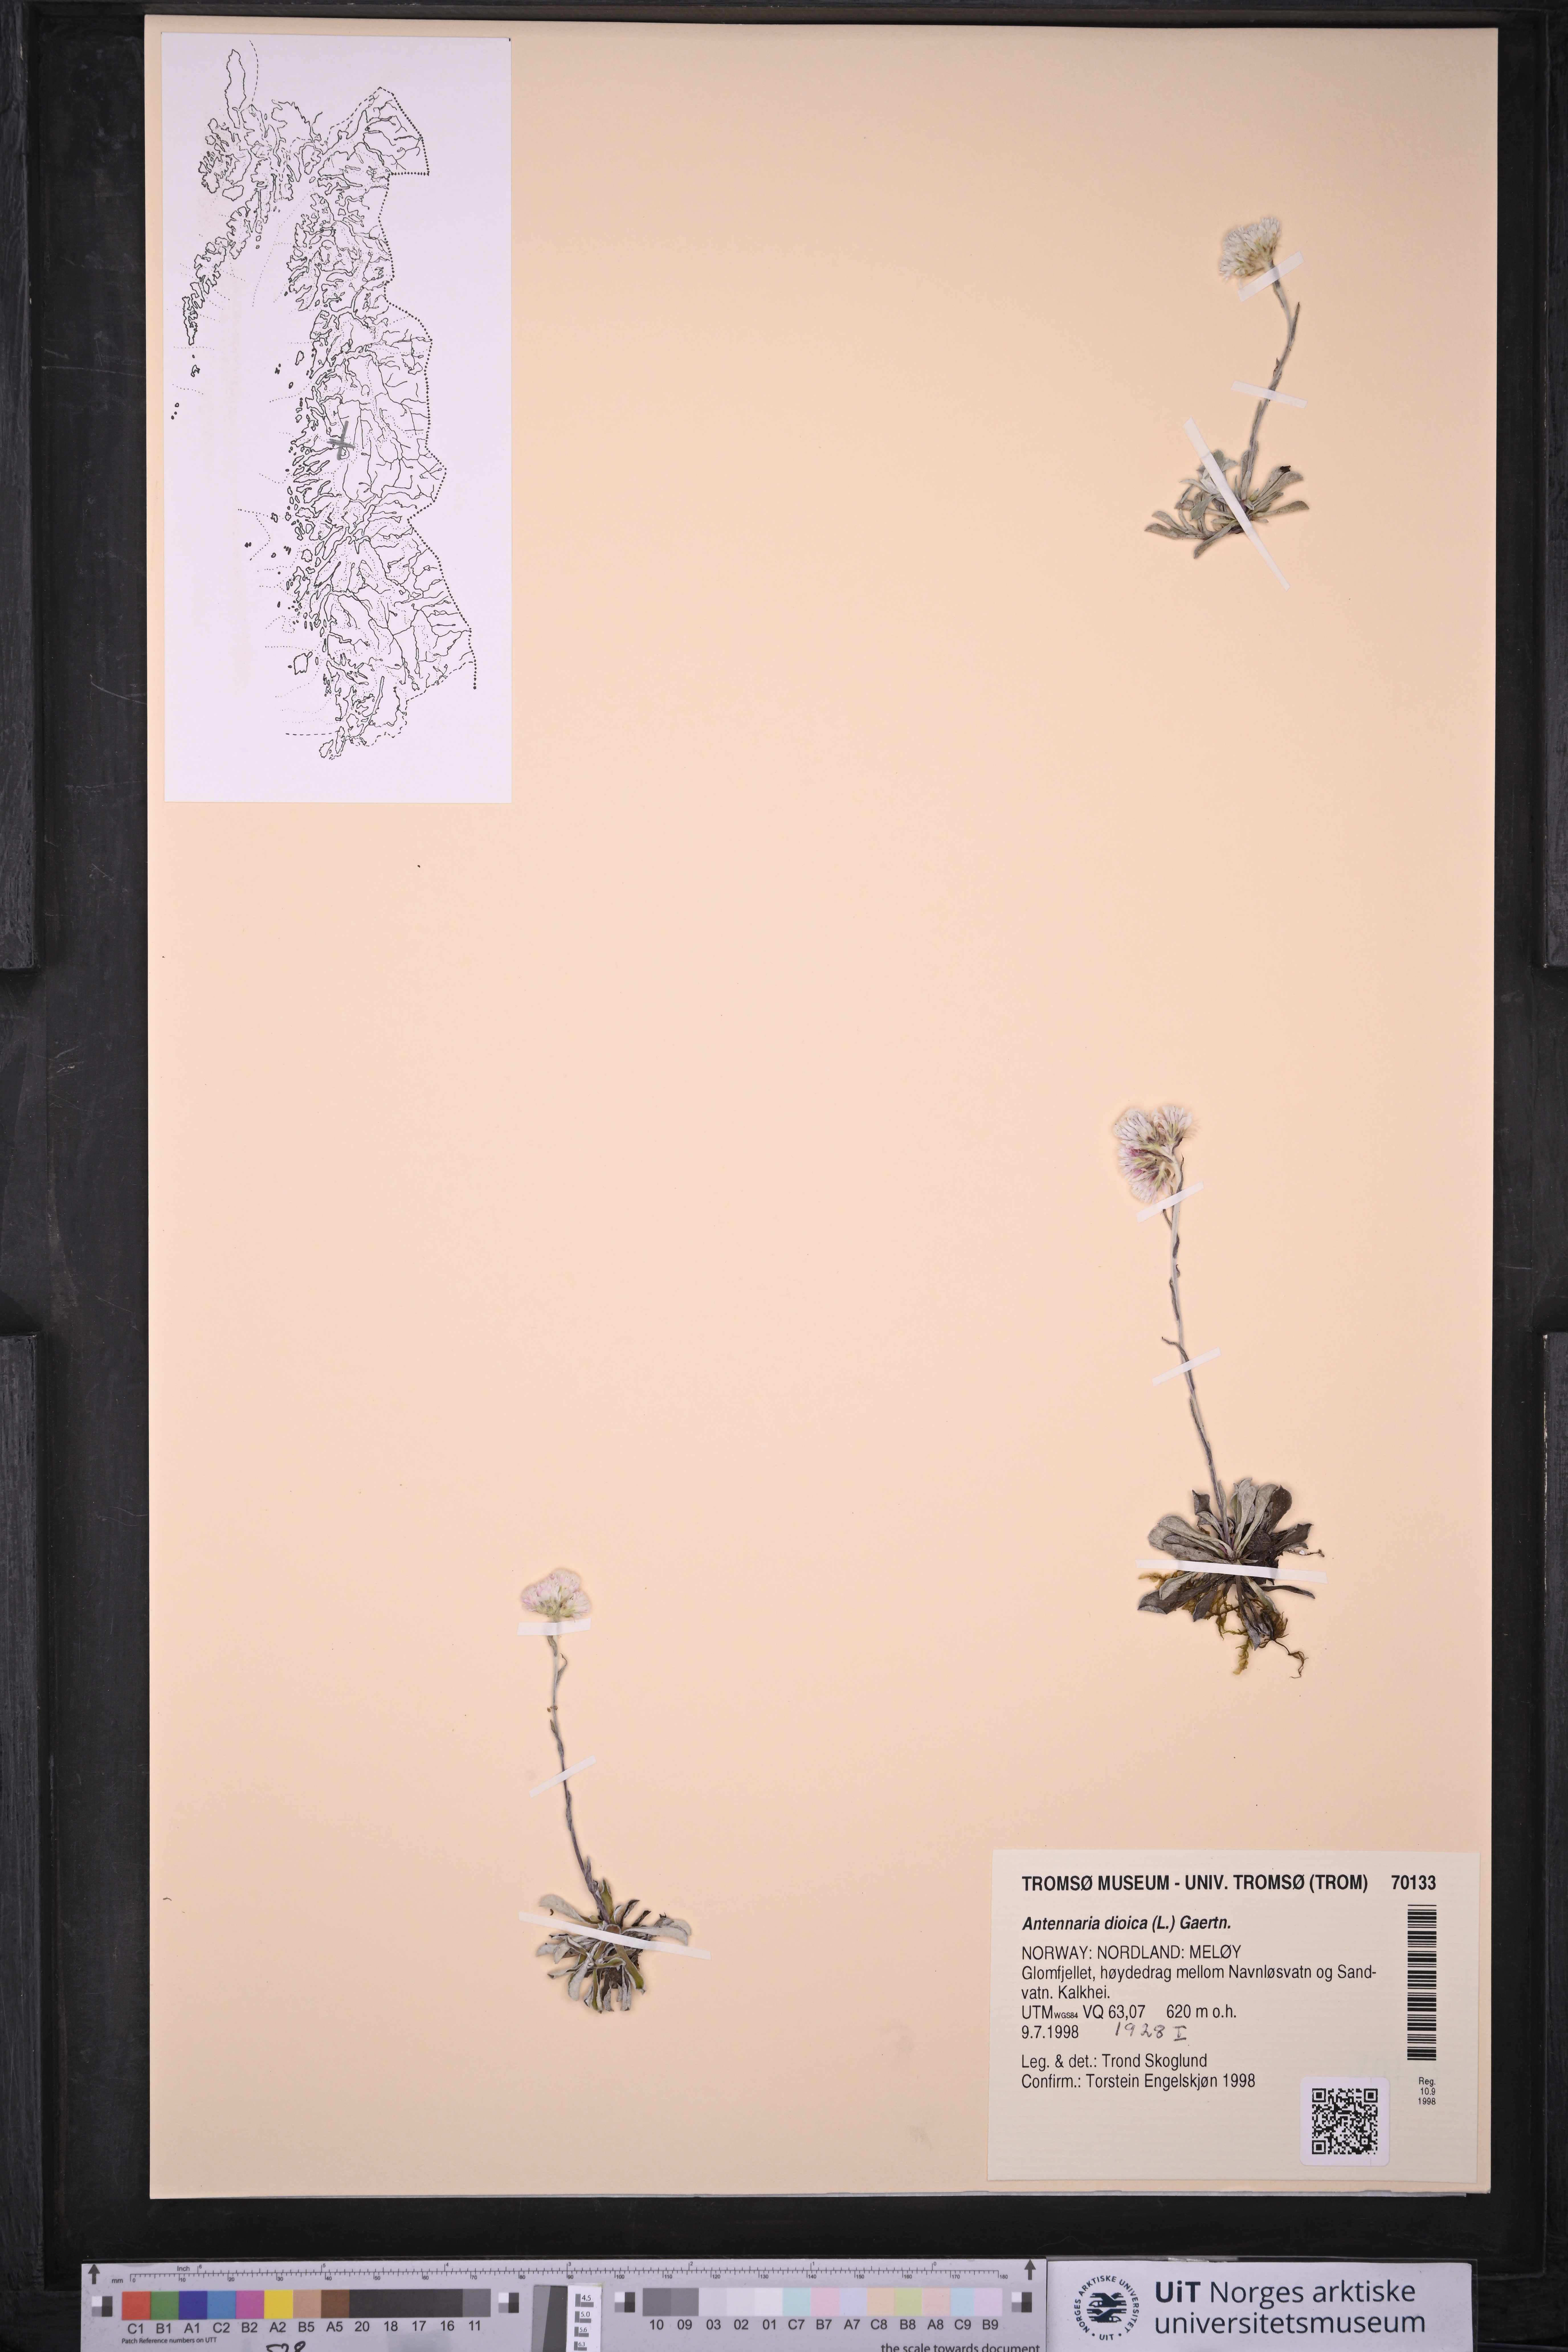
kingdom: Plantae
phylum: Tracheophyta
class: Magnoliopsida
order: Asterales
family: Asteraceae
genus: Antennaria
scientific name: Antennaria dioica
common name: Mountain everlasting
